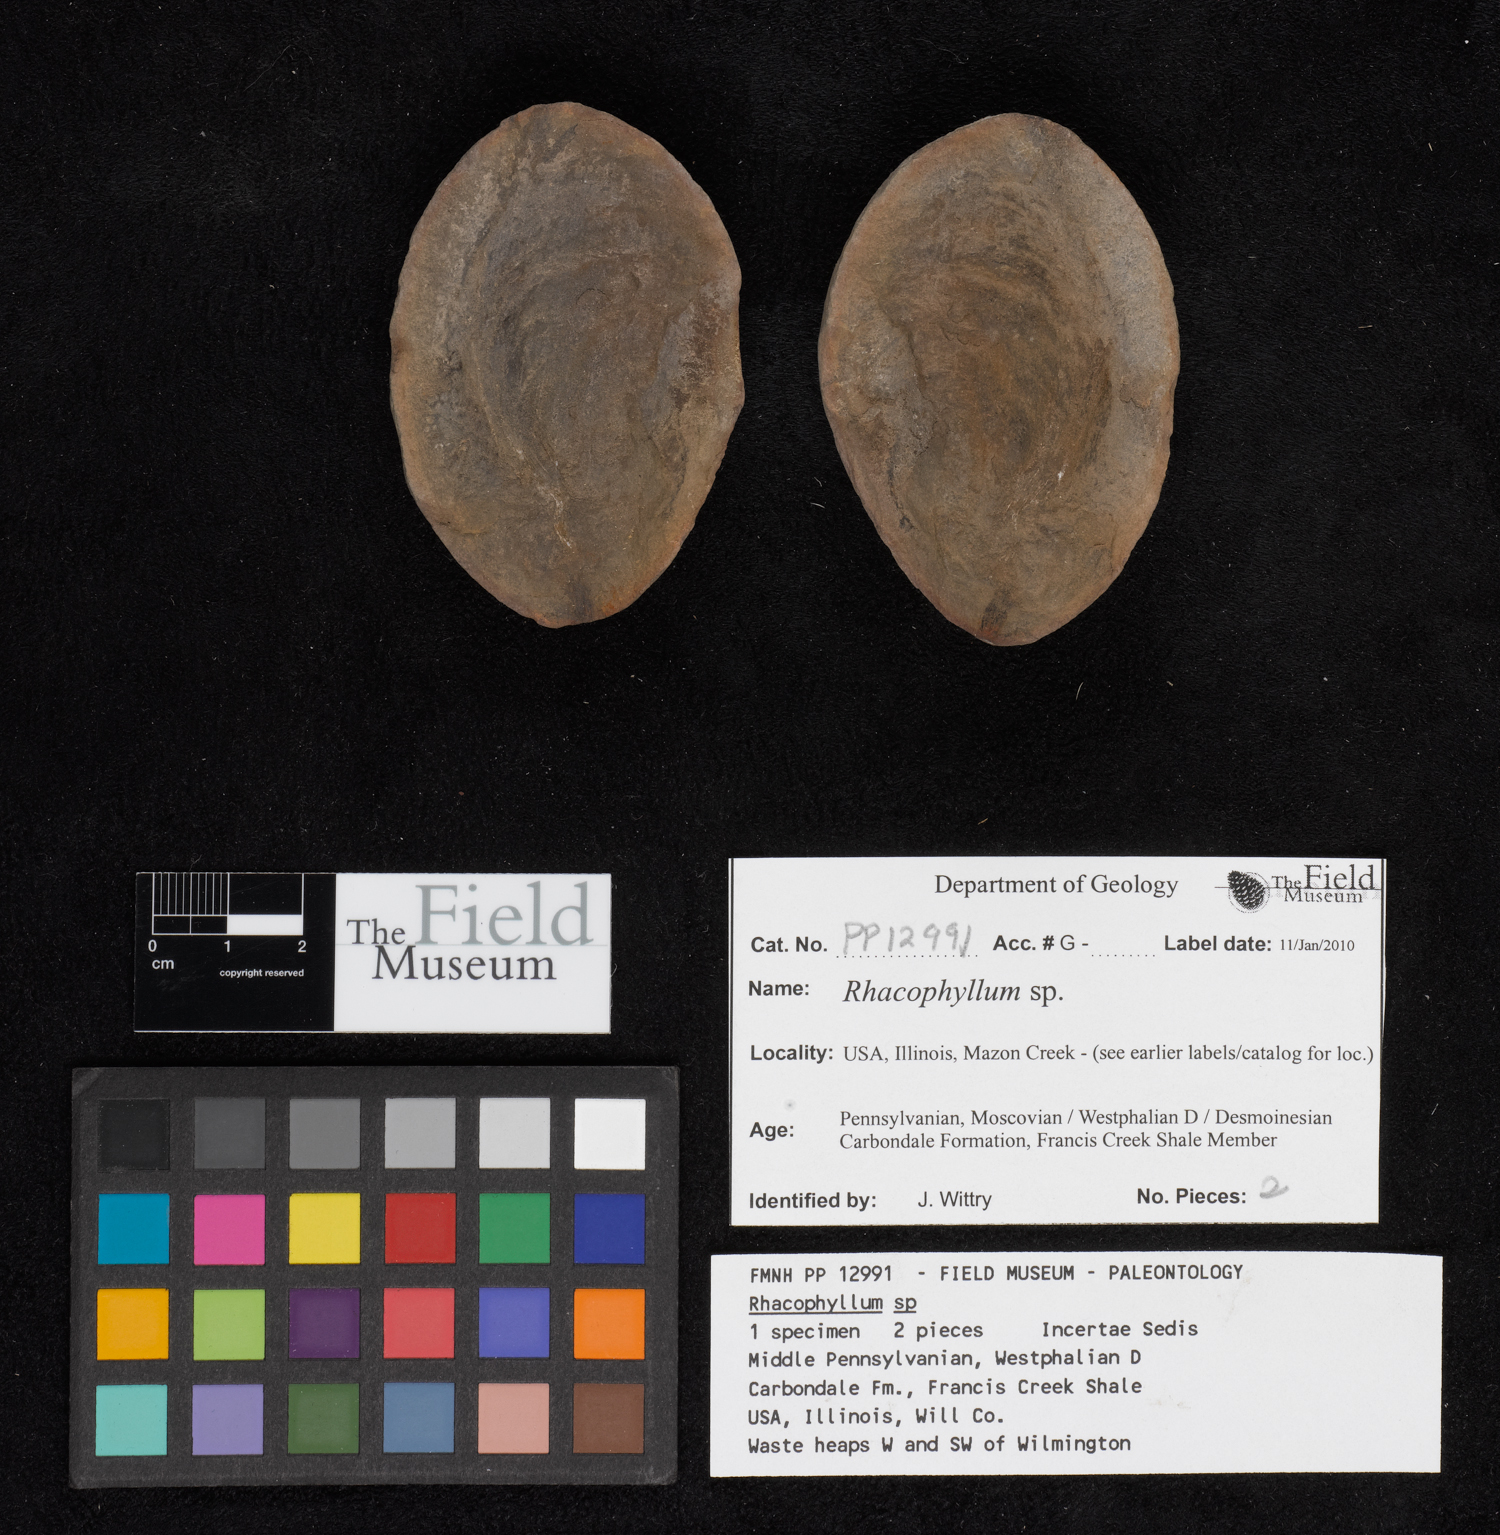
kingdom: Plantae
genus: Rhacophyllum
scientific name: Rhacophyllum
